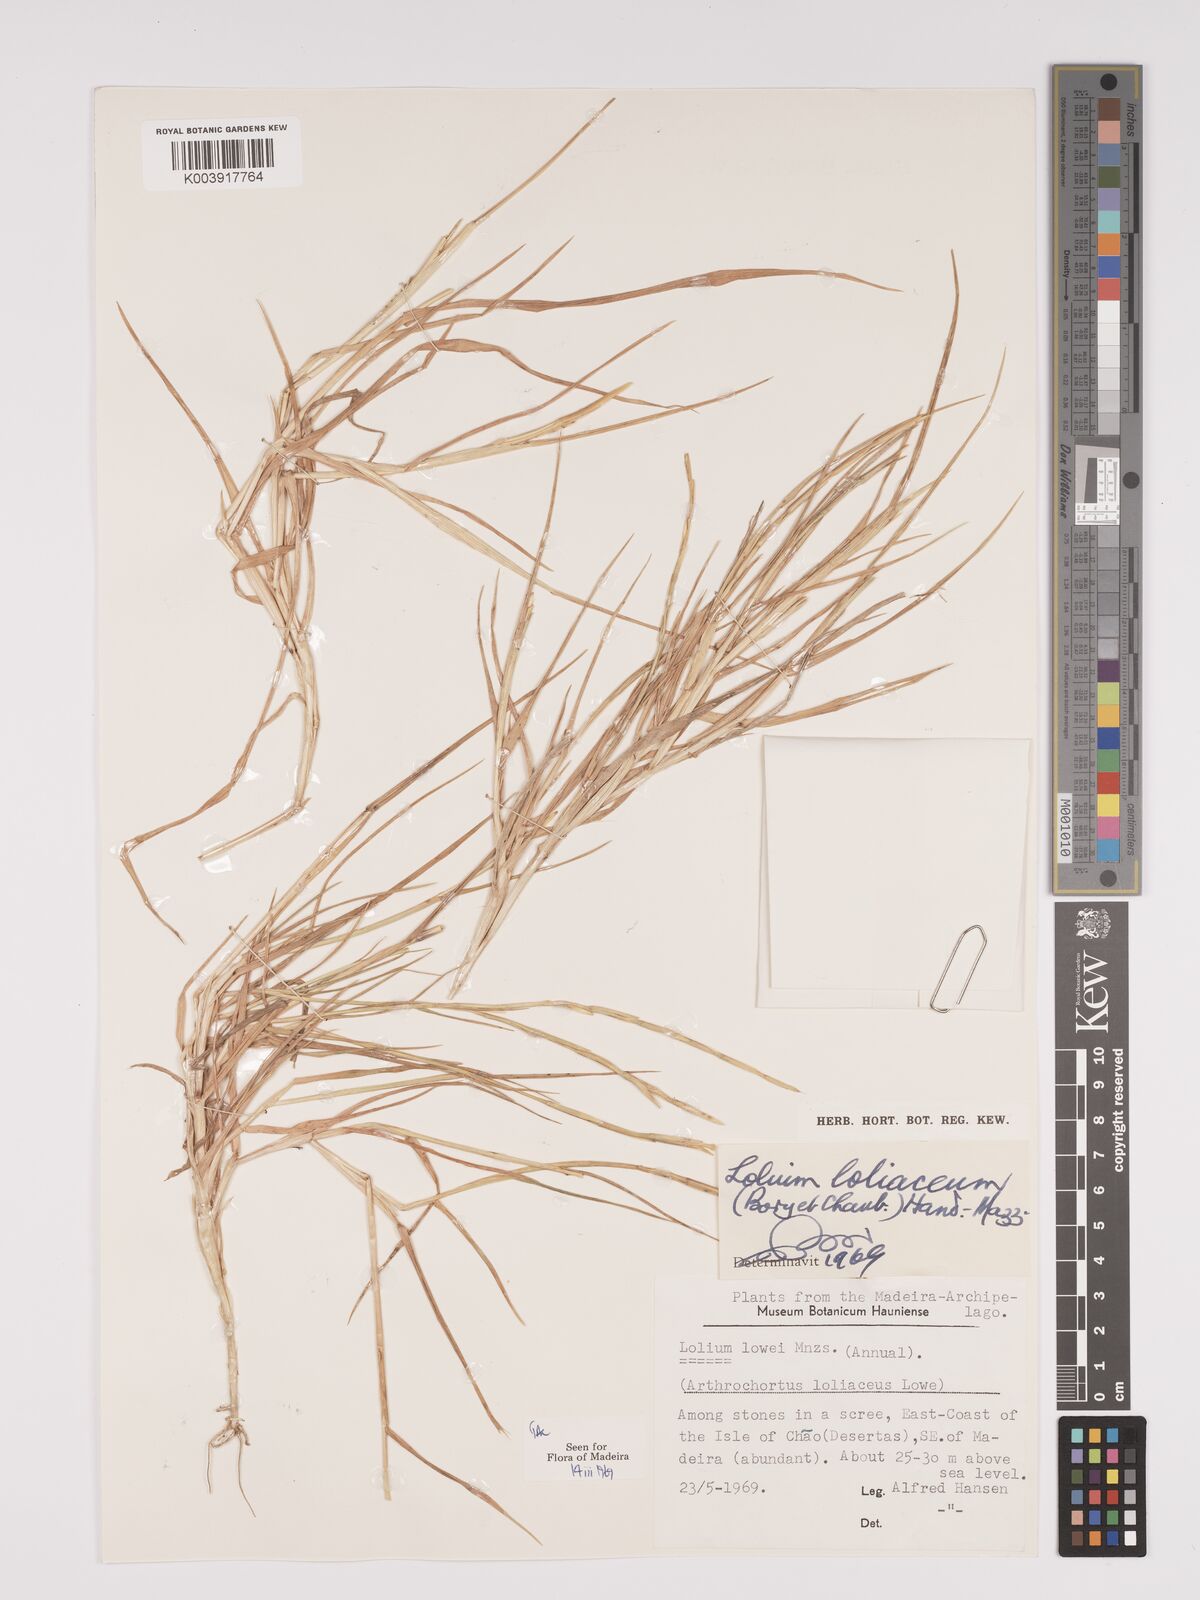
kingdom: Plantae
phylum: Tracheophyta
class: Liliopsida
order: Poales
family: Poaceae
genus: Lolium
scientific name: Lolium rigidum
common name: Wimmera ryegrass
